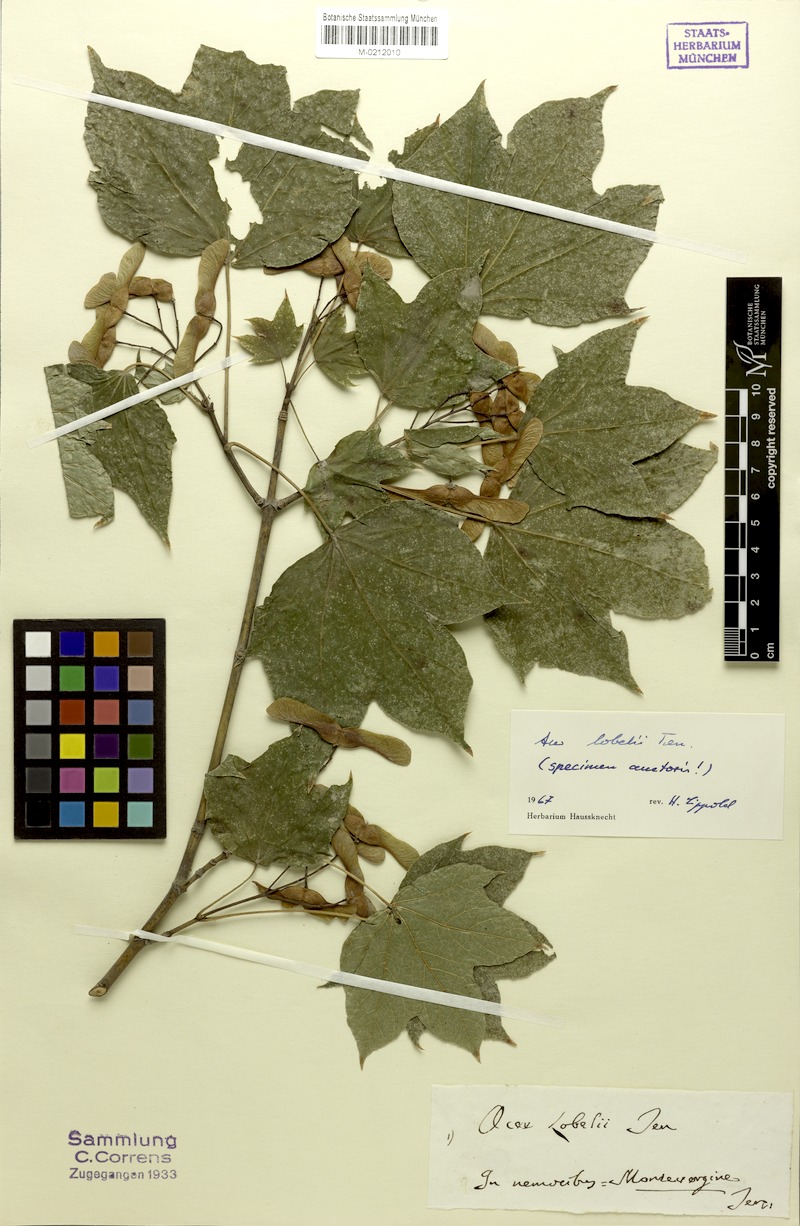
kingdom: Plantae
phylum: Tracheophyta
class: Magnoliopsida
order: Sapindales
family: Sapindaceae
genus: Acer
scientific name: Acer lobelii
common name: Lobel's maple
